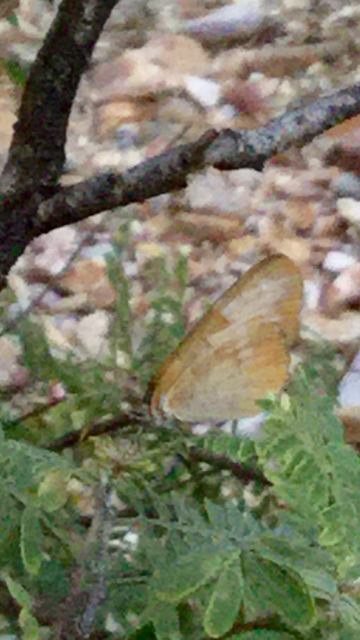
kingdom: Animalia
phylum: Arthropoda
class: Insecta
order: Lepidoptera
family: Nymphalidae
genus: Mestra
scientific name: Mestra amymone
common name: Common Mestra
